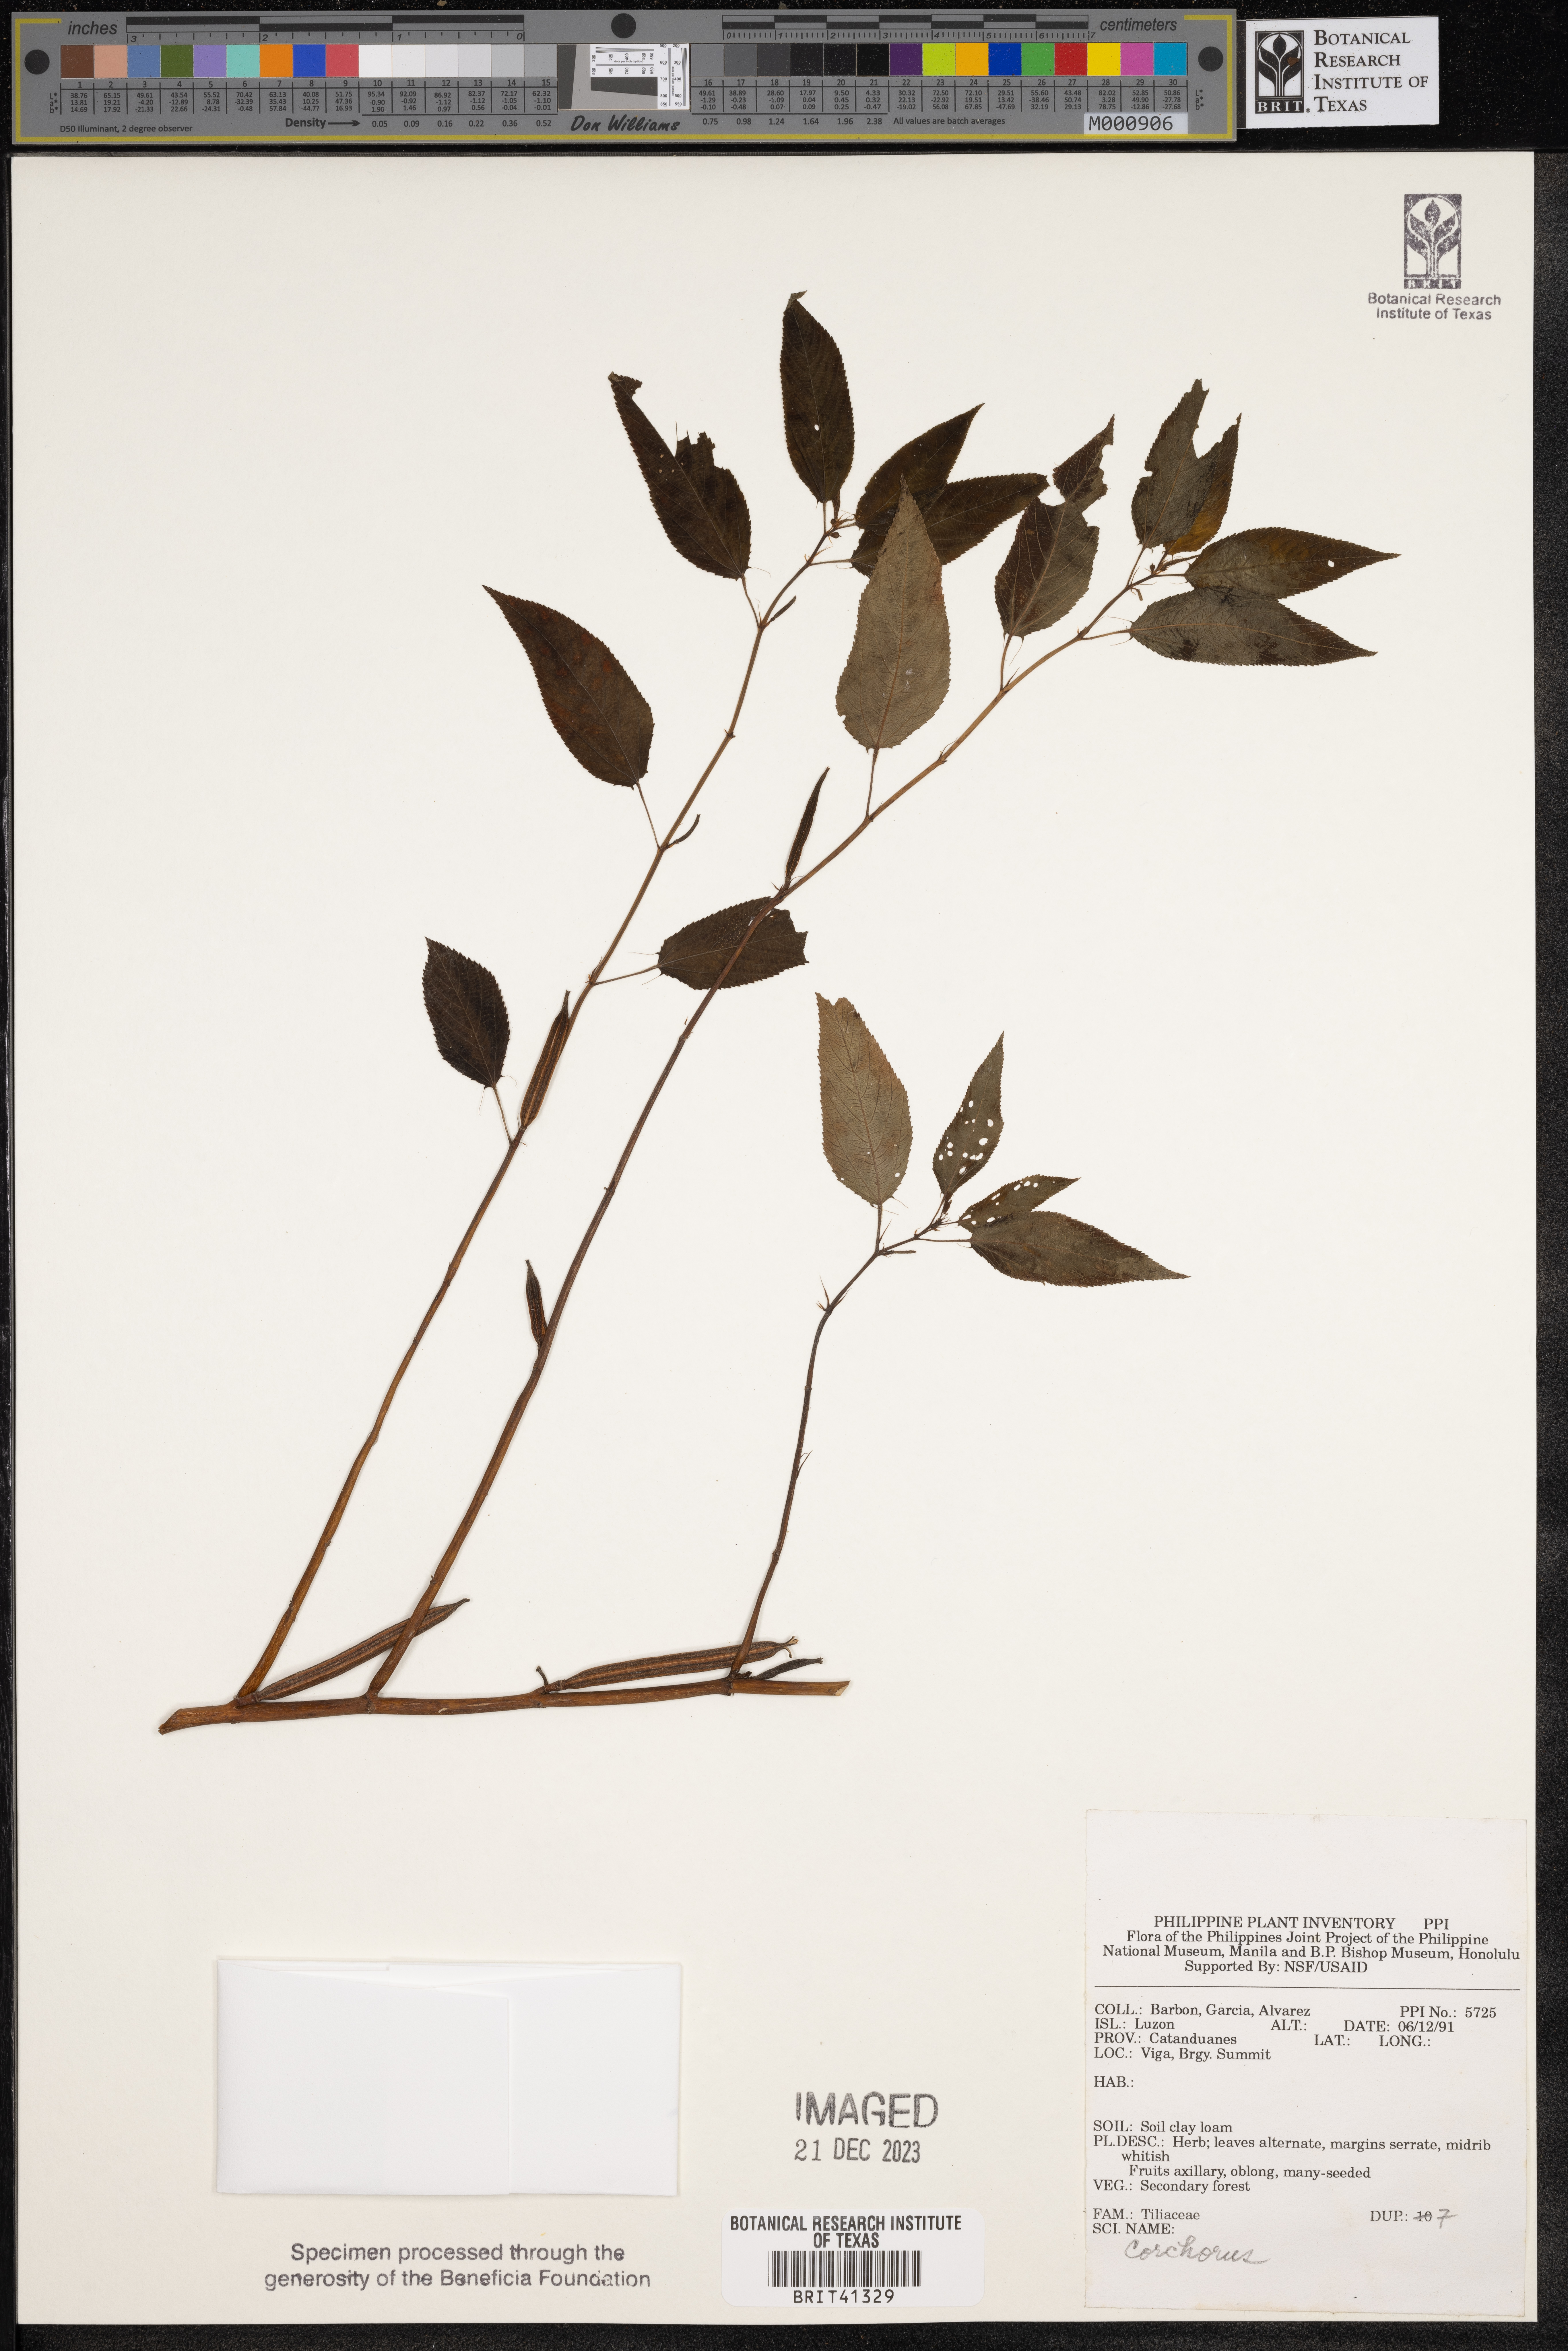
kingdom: Plantae
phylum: Tracheophyta
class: Magnoliopsida
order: Malvales
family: Malvaceae
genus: Corchorus
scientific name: Corchorus
